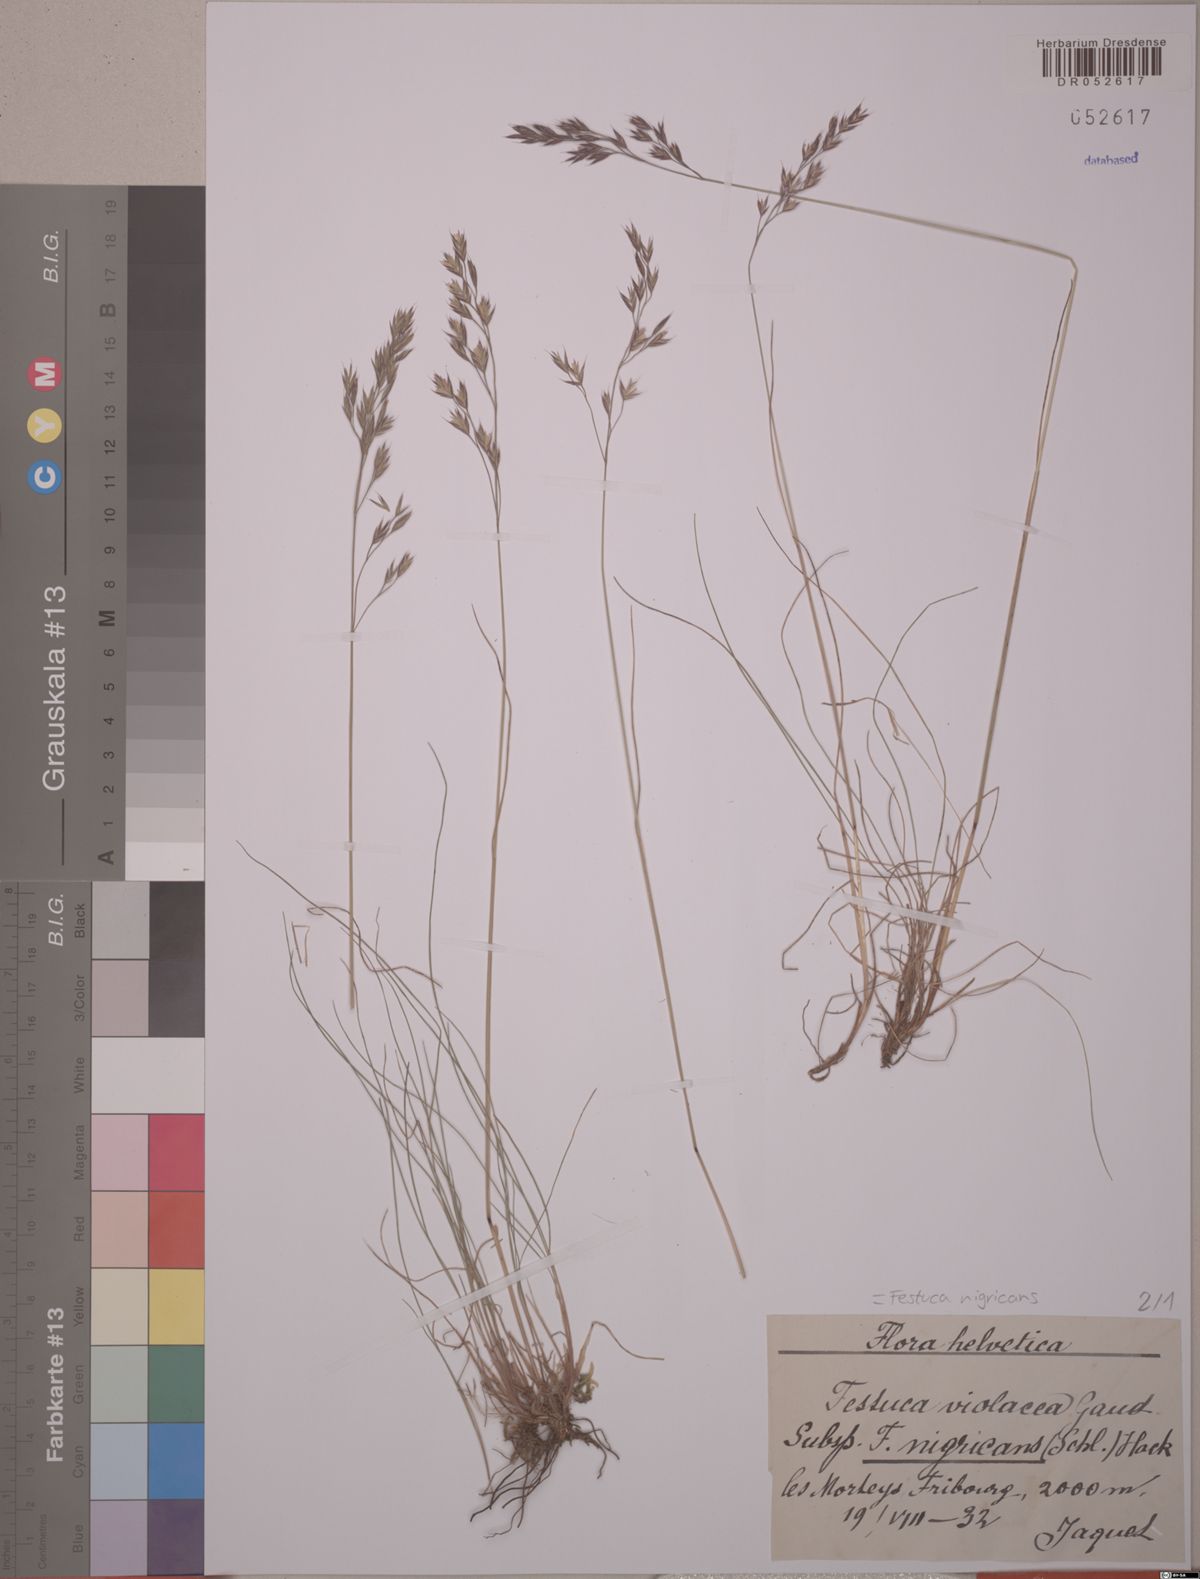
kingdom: Plantae
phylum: Tracheophyta
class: Liliopsida
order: Poales
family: Poaceae
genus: Festuca
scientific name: Festuca violacea
